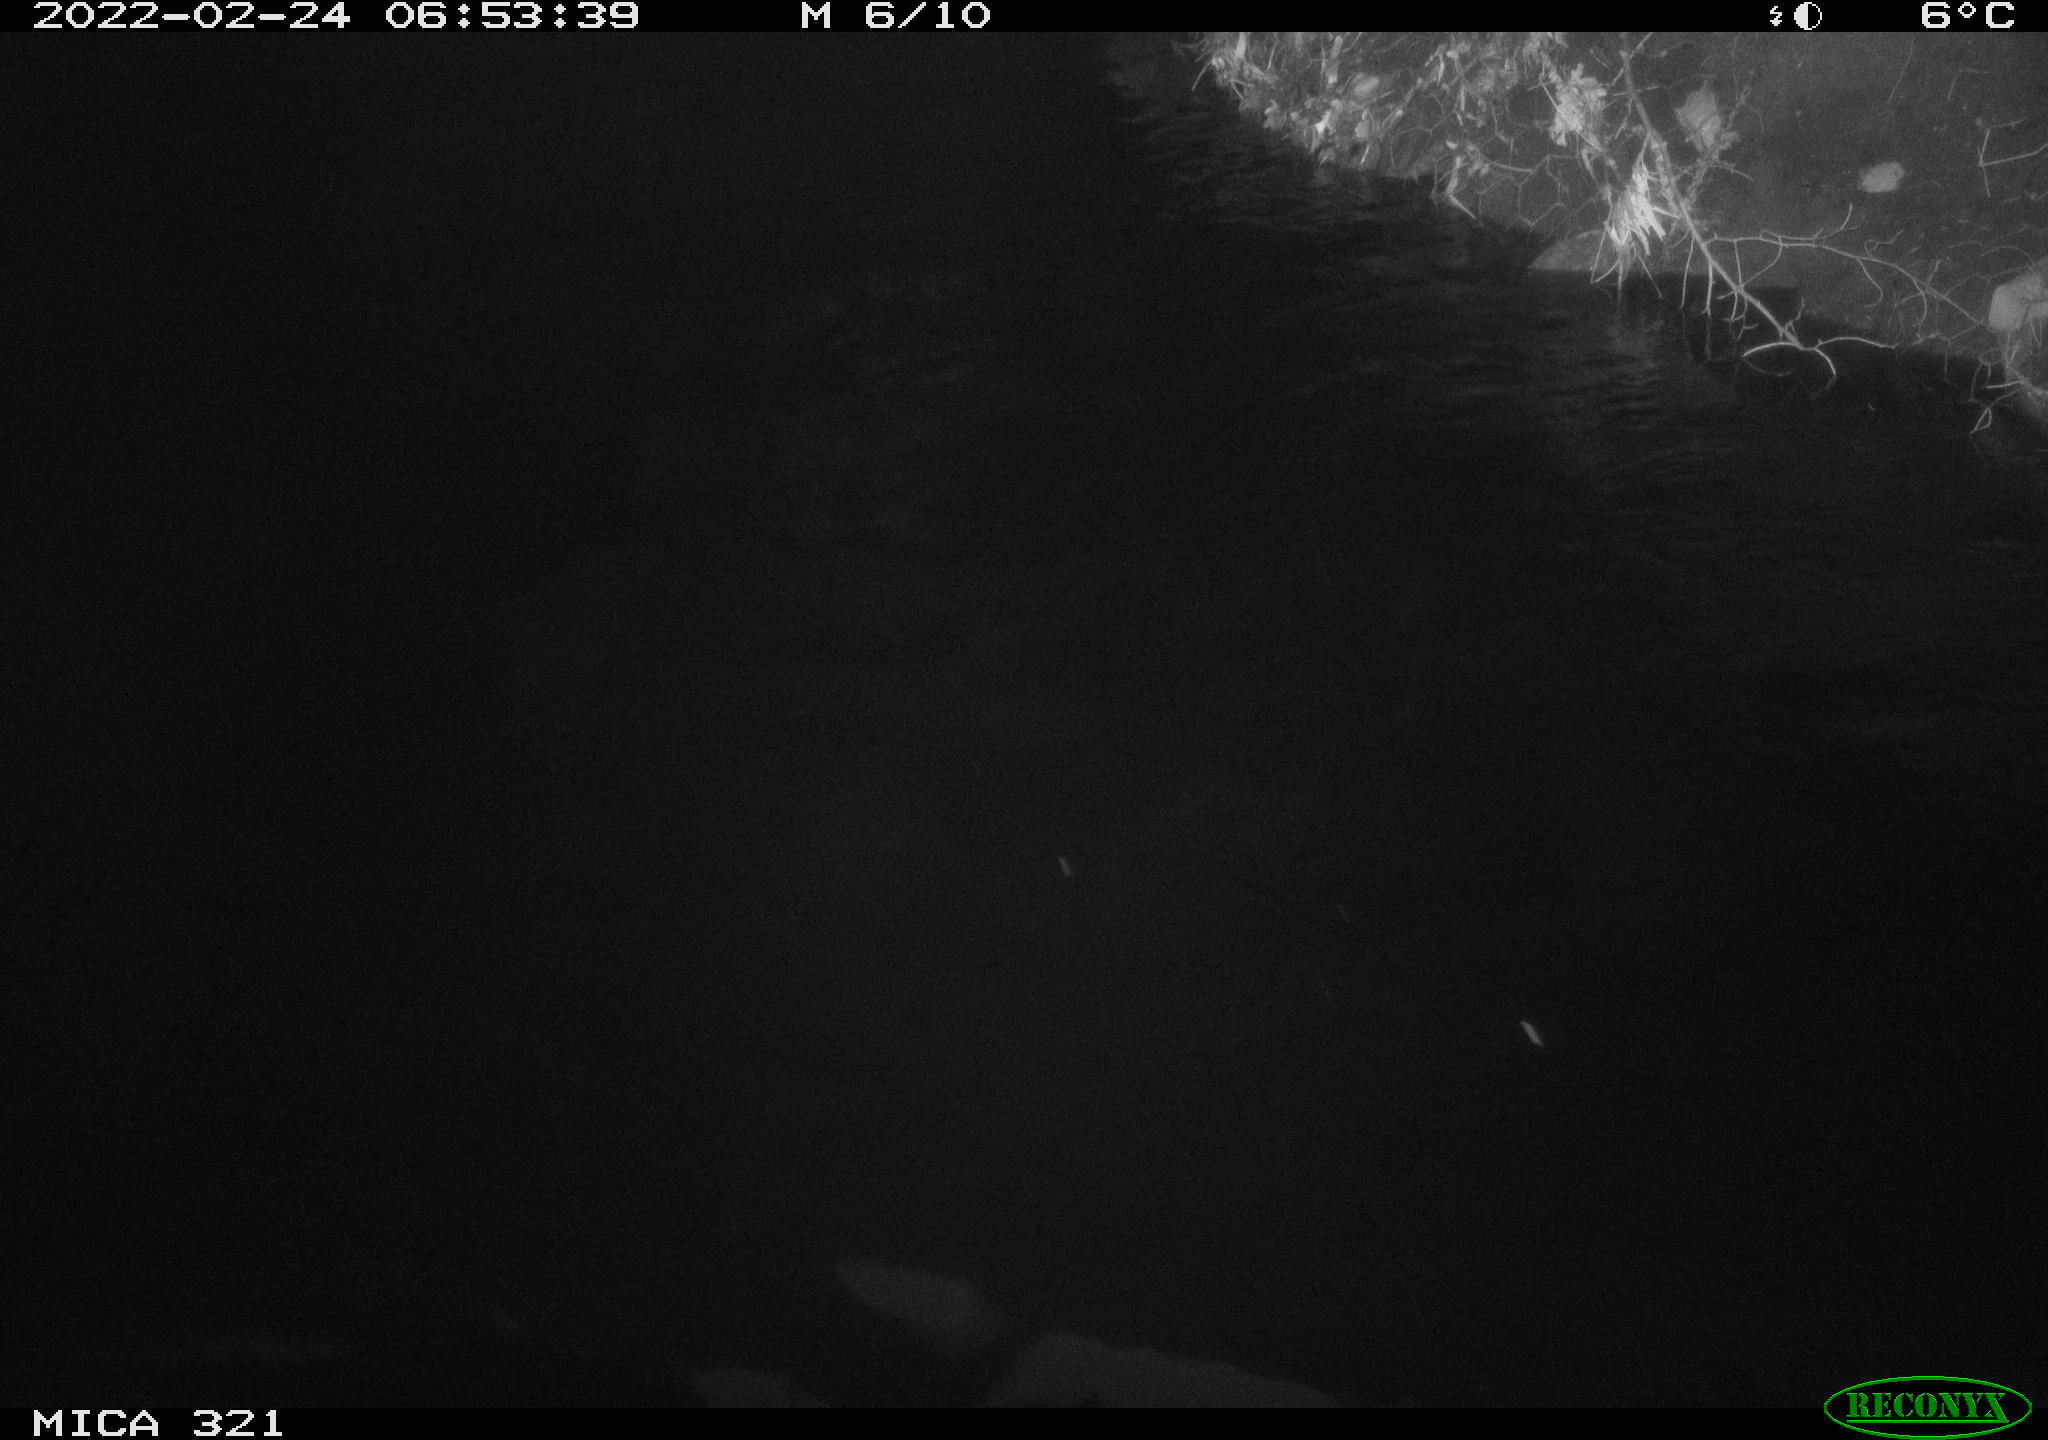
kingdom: Animalia
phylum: Chordata
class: Aves
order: Anseriformes
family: Anatidae
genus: Anas
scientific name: Anas platyrhynchos
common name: Mallard
